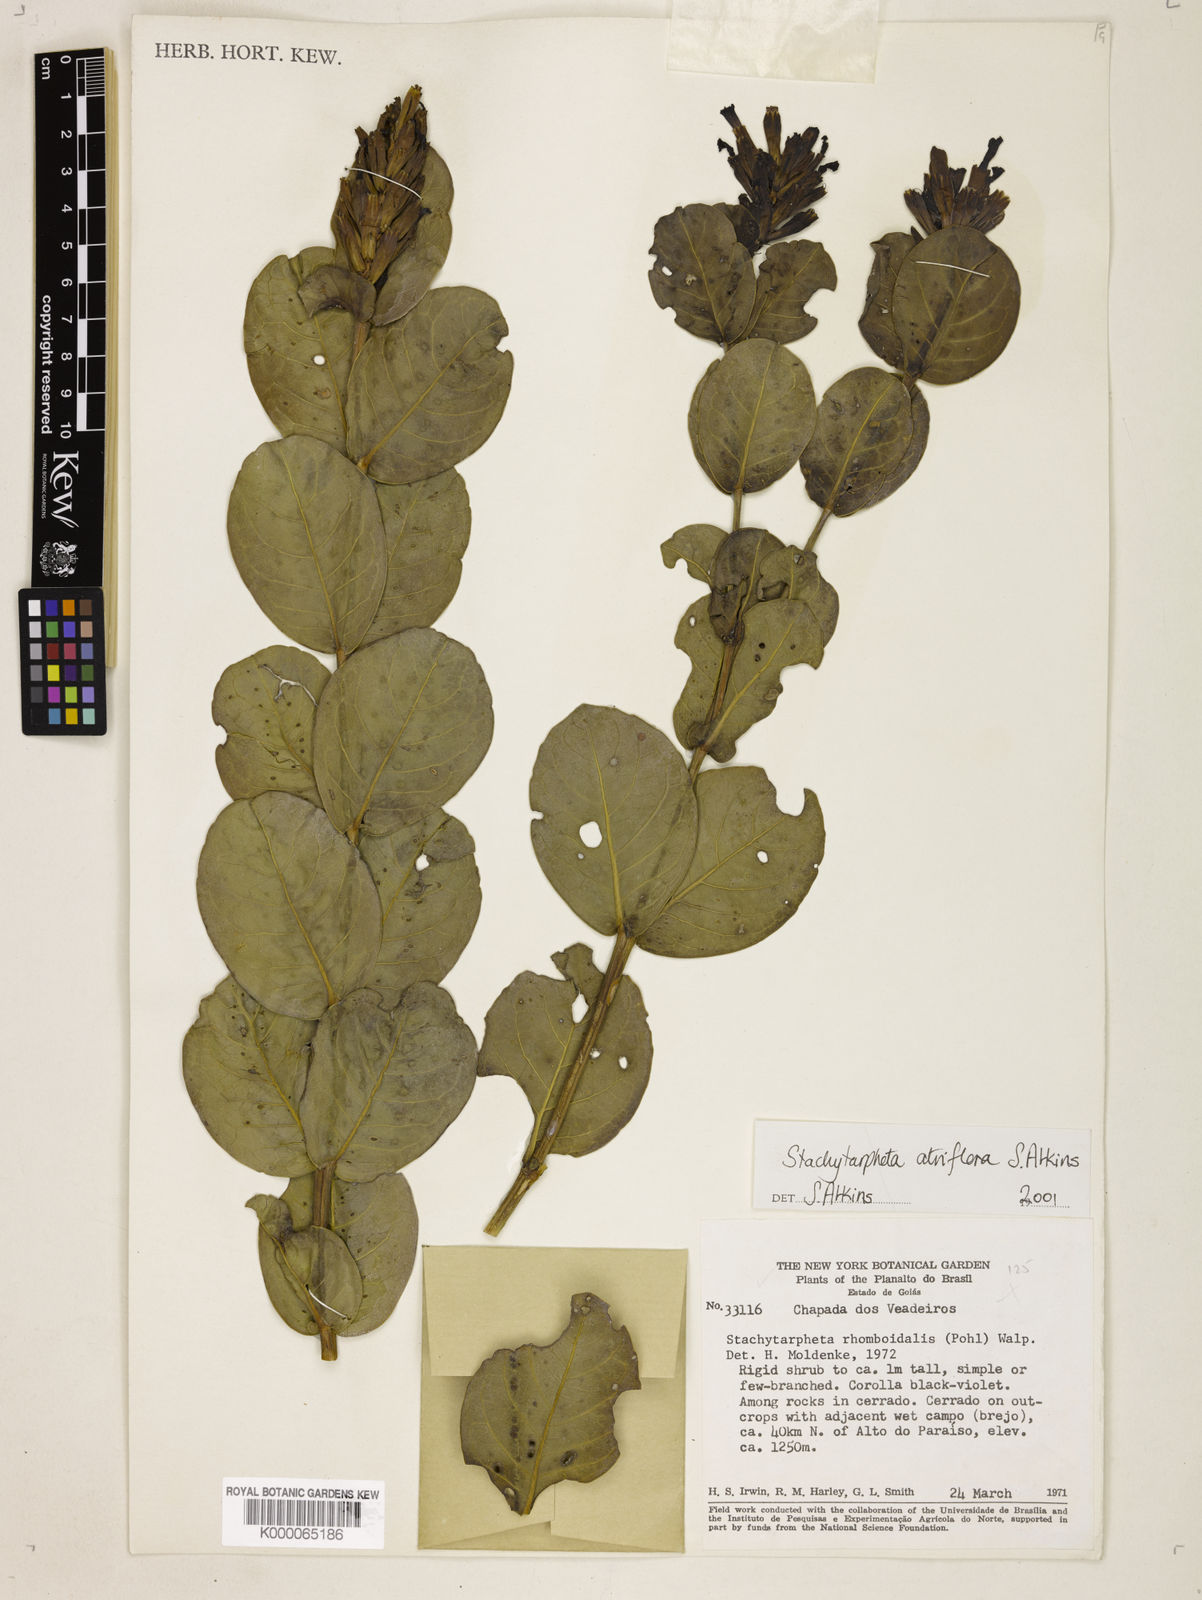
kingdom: Plantae
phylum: Tracheophyta
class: Magnoliopsida
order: Lamiales
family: Verbenaceae
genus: Stachytarpheta
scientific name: Stachytarpheta glauca
